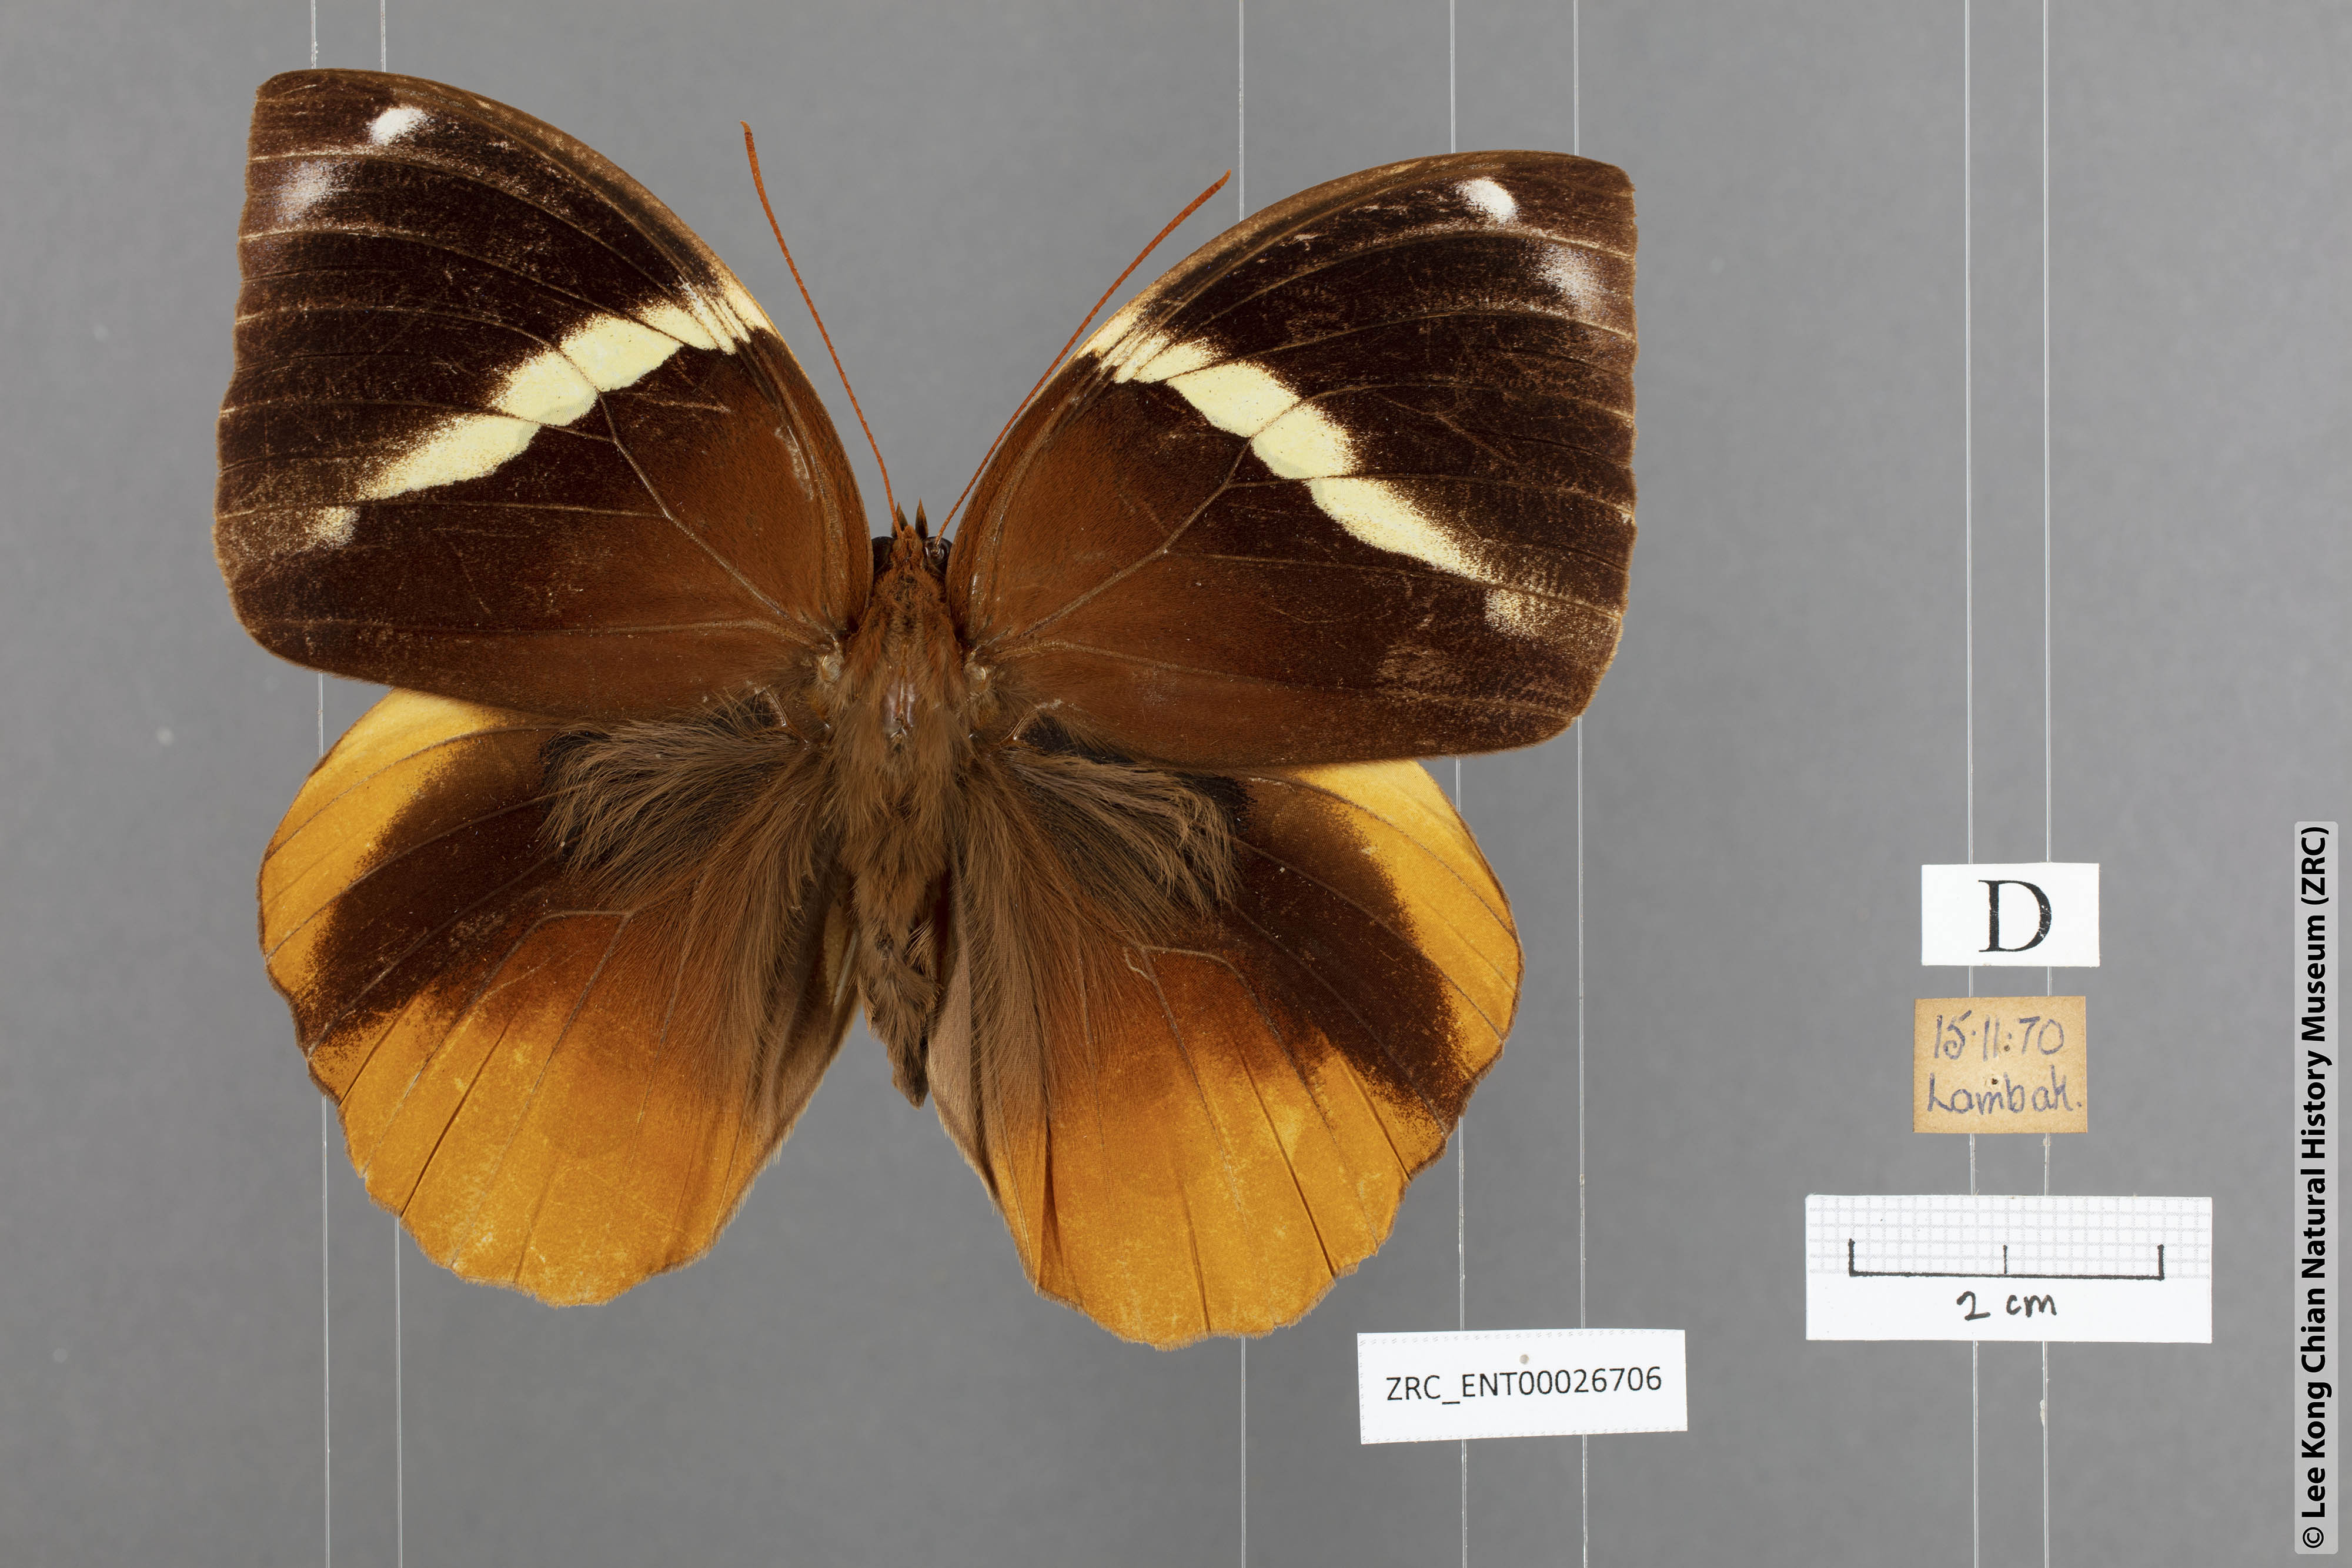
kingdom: Animalia
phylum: Arthropoda
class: Insecta
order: Lepidoptera
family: Nymphalidae
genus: Thauria
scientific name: Thauria aliris
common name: Tufted jungle king
